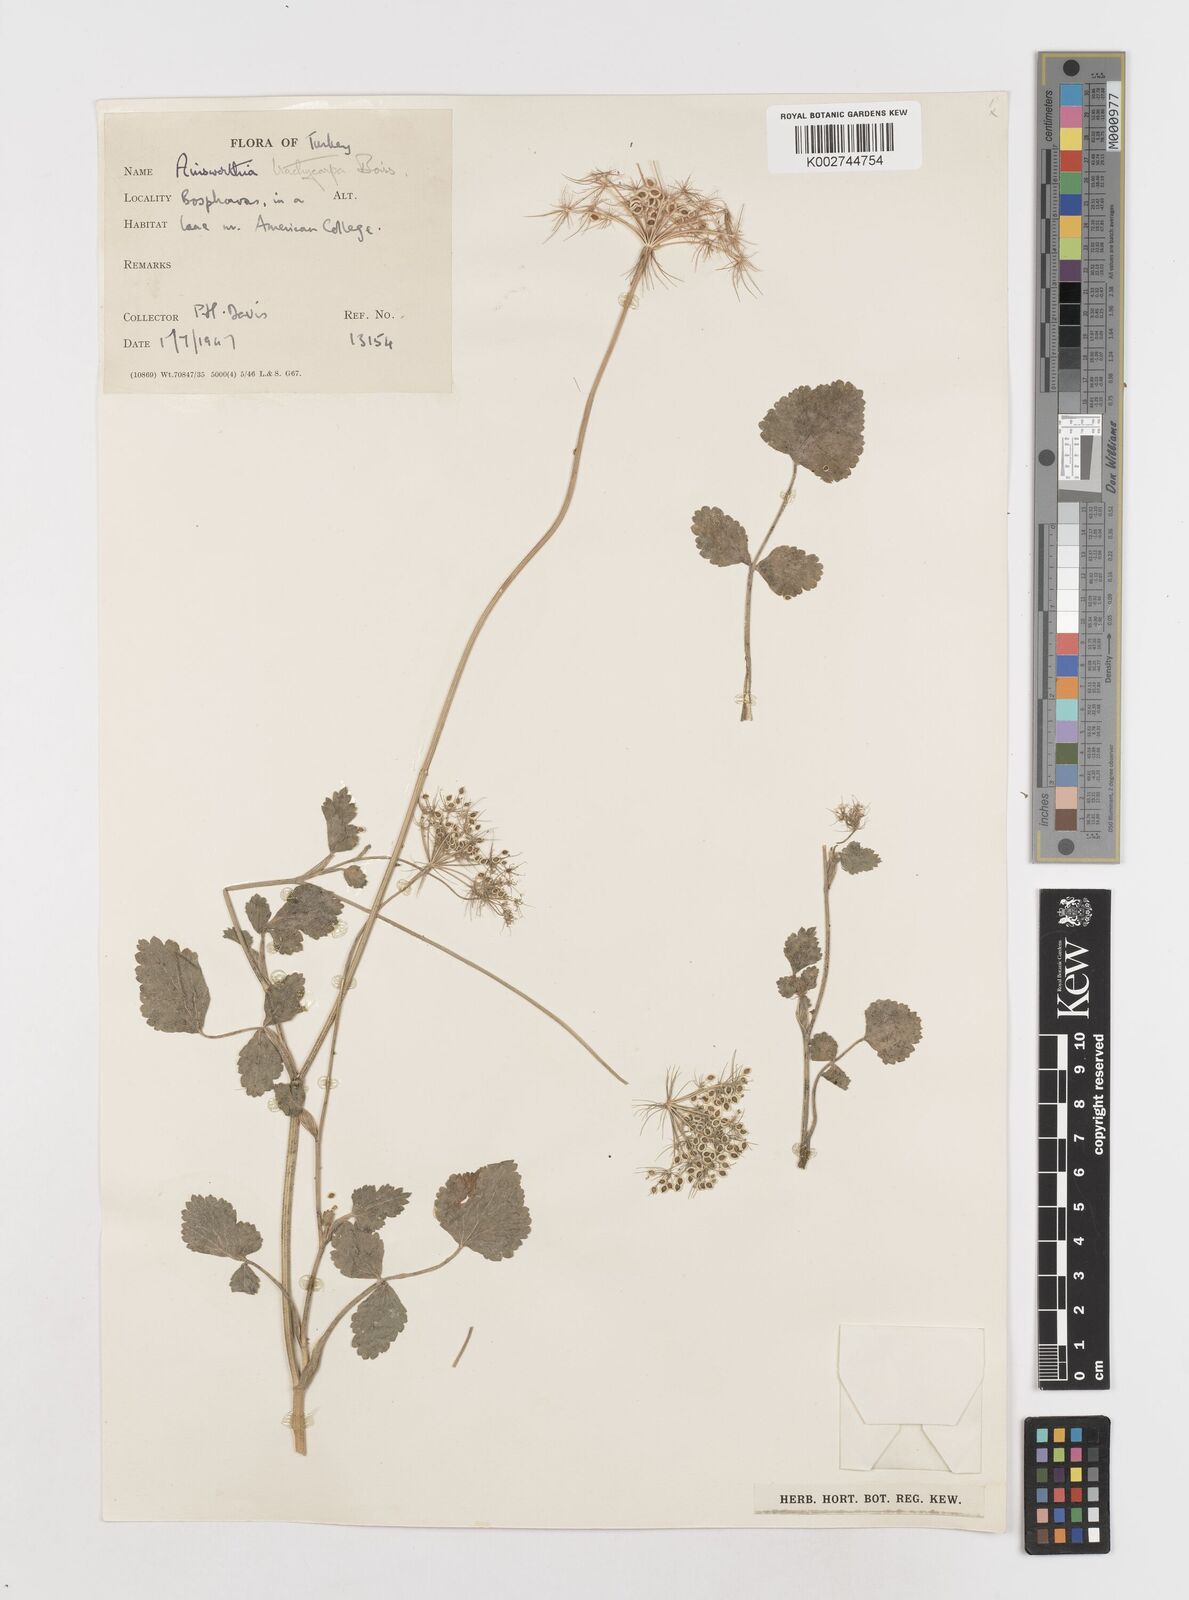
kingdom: Plantae
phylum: Tracheophyta
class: Magnoliopsida
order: Apiales
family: Apiaceae
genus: Ainsworthia
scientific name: Ainsworthia cordata
